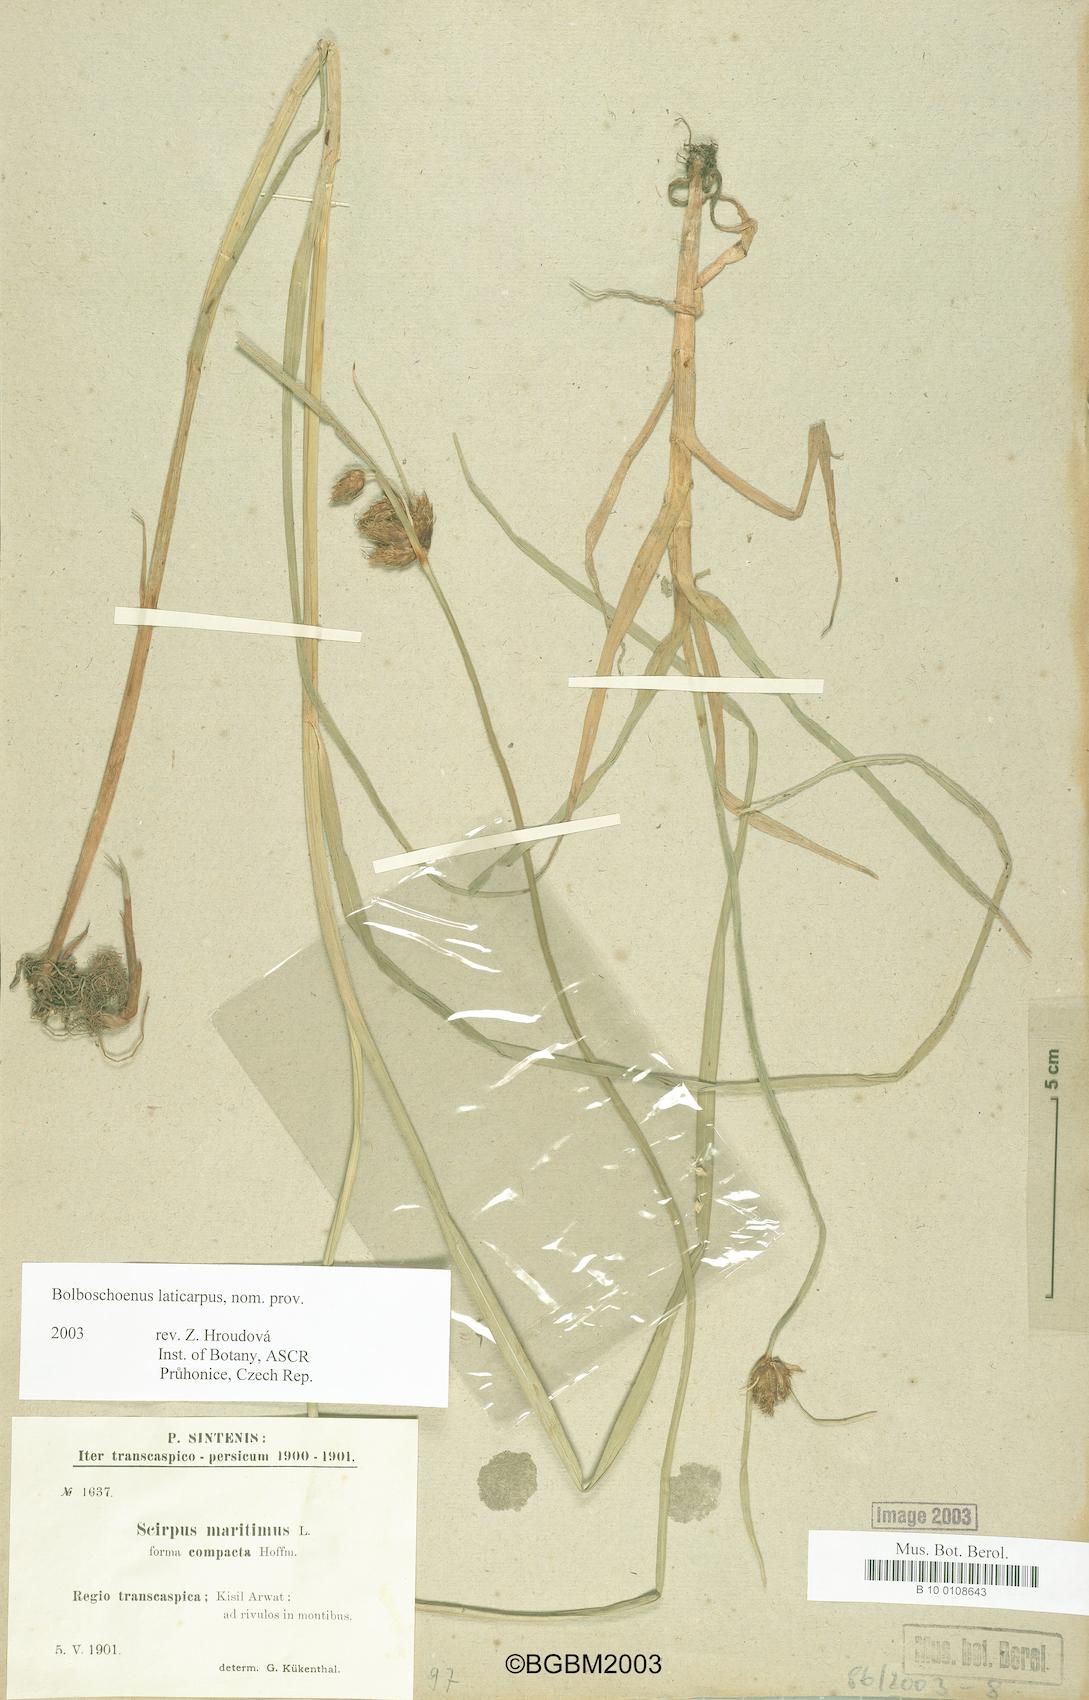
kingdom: Plantae
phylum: Tracheophyta
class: Liliopsida
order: Poales
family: Cyperaceae
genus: Bolboschoenus
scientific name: Bolboschoenus laticarpus
